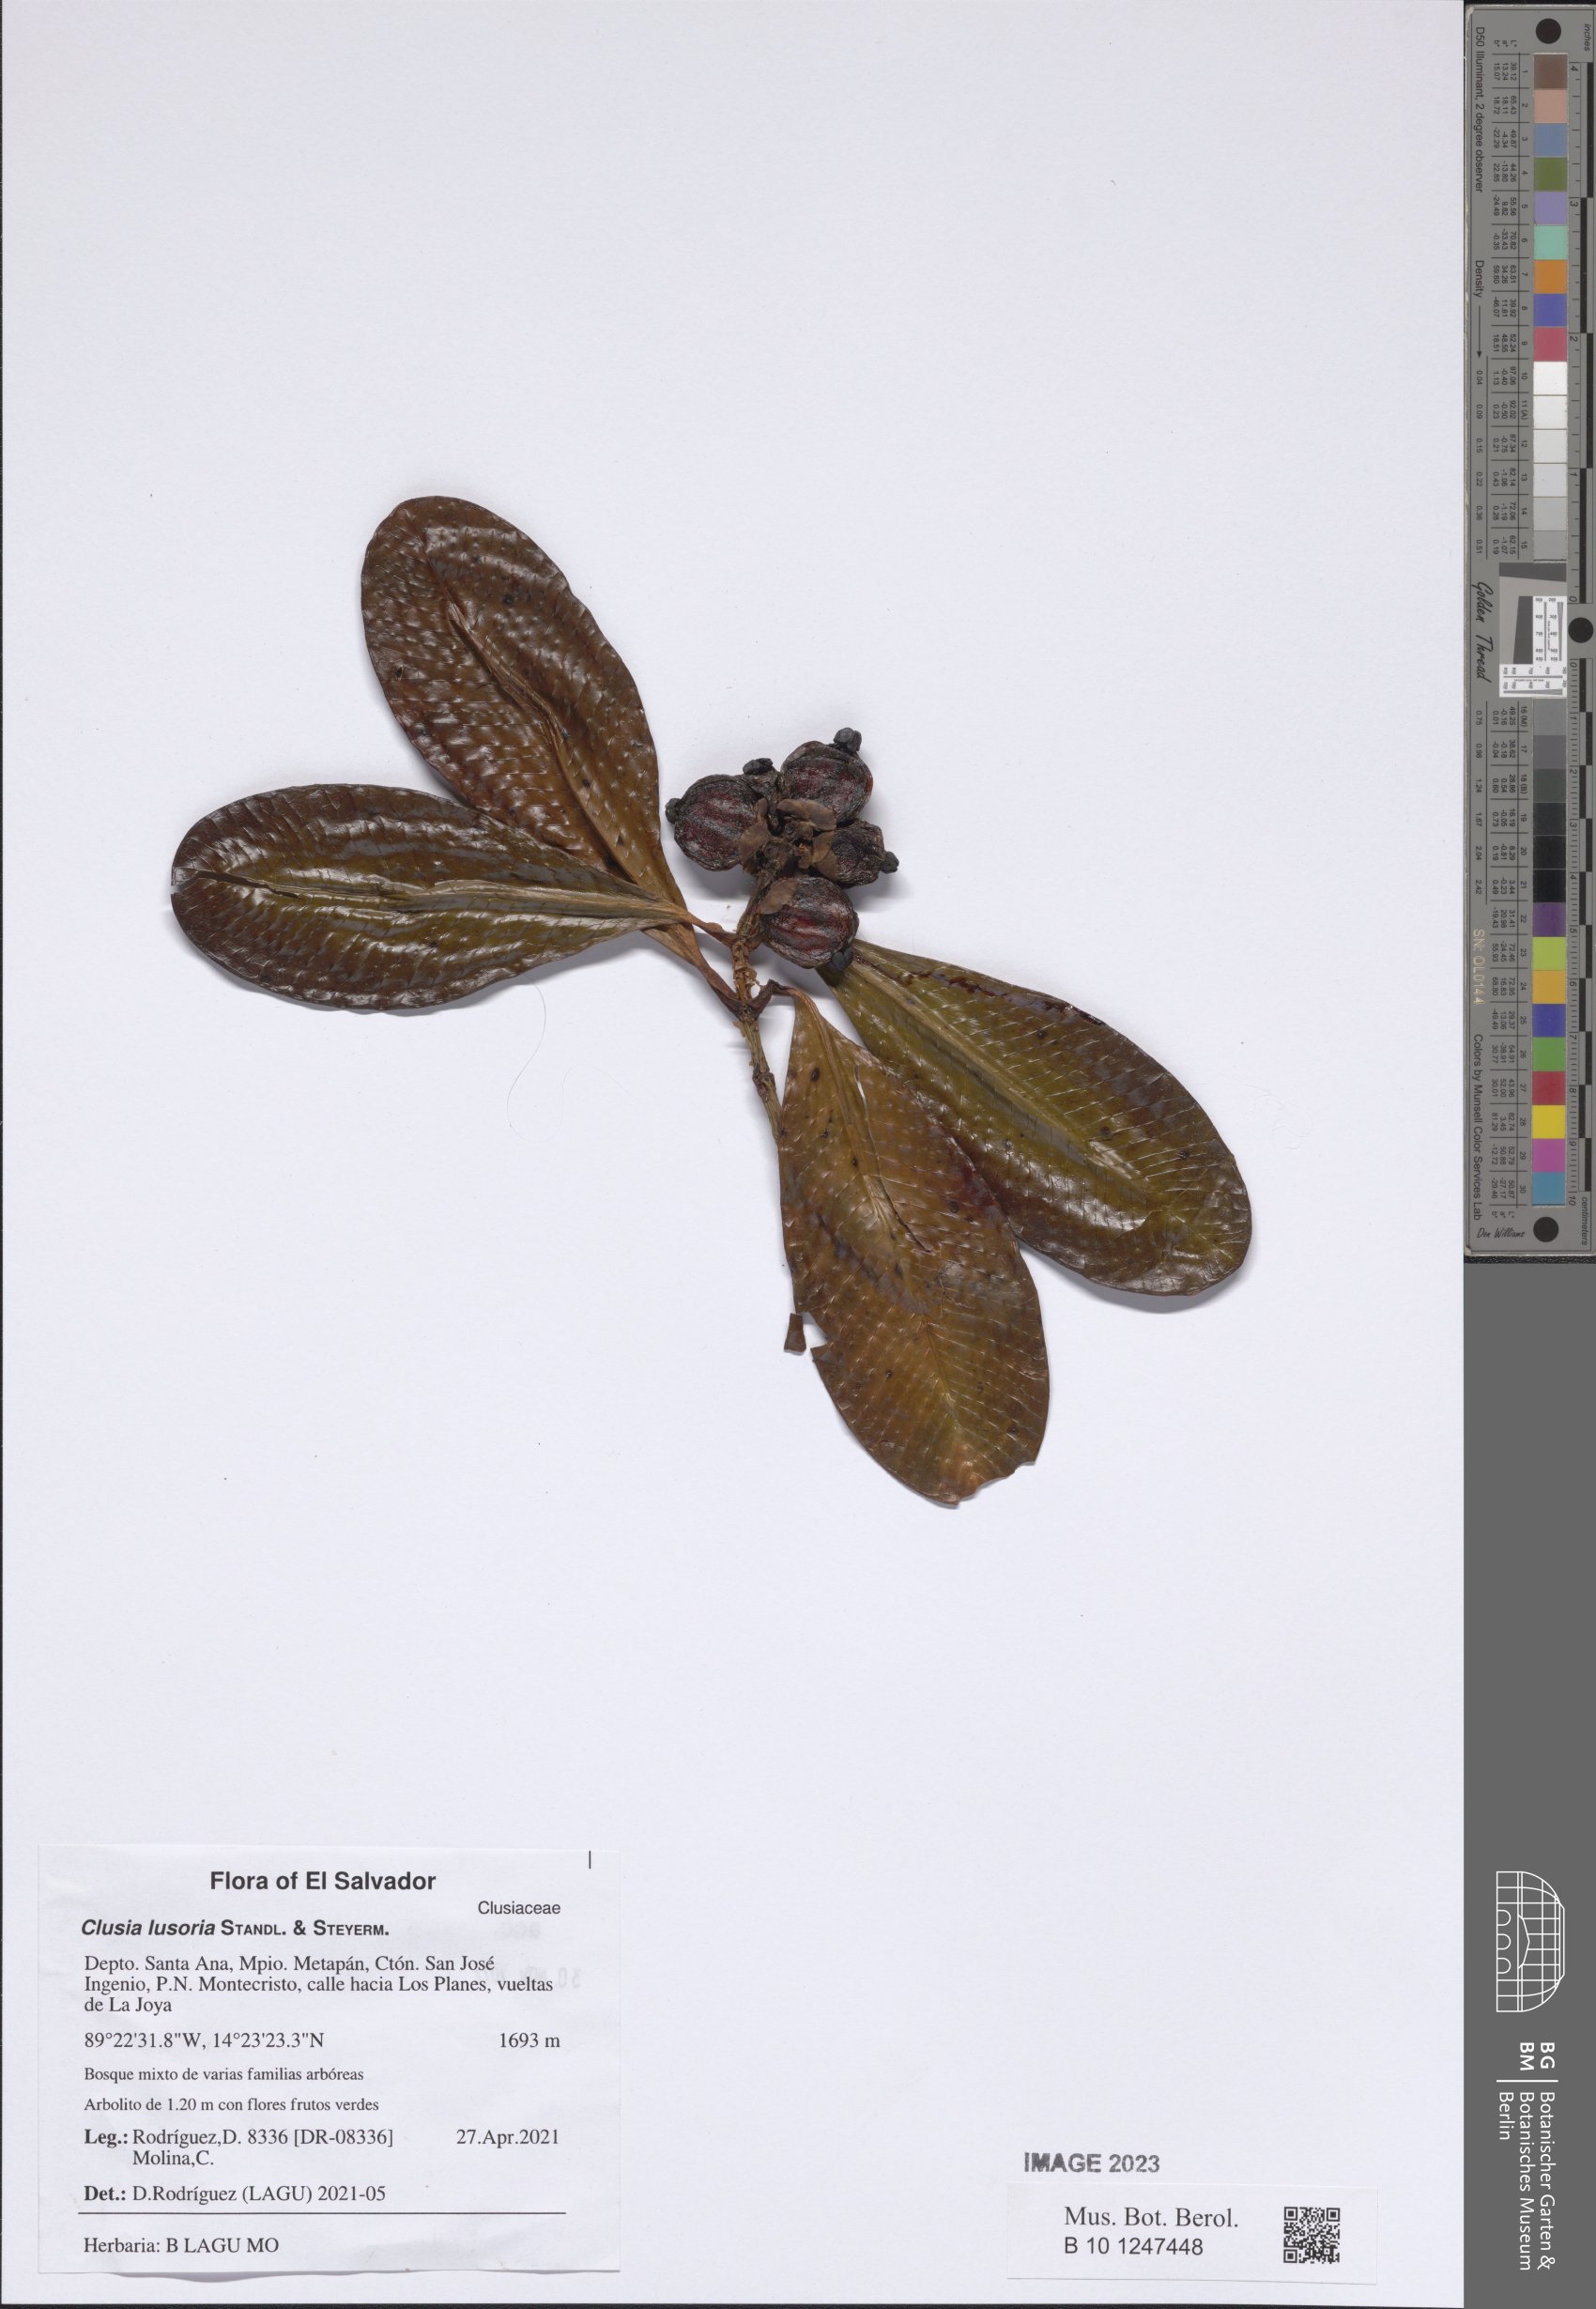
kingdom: Plantae
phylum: Tracheophyta
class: Magnoliopsida
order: Malpighiales
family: Clusiaceae
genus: Clusia
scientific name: Clusia lusoria
